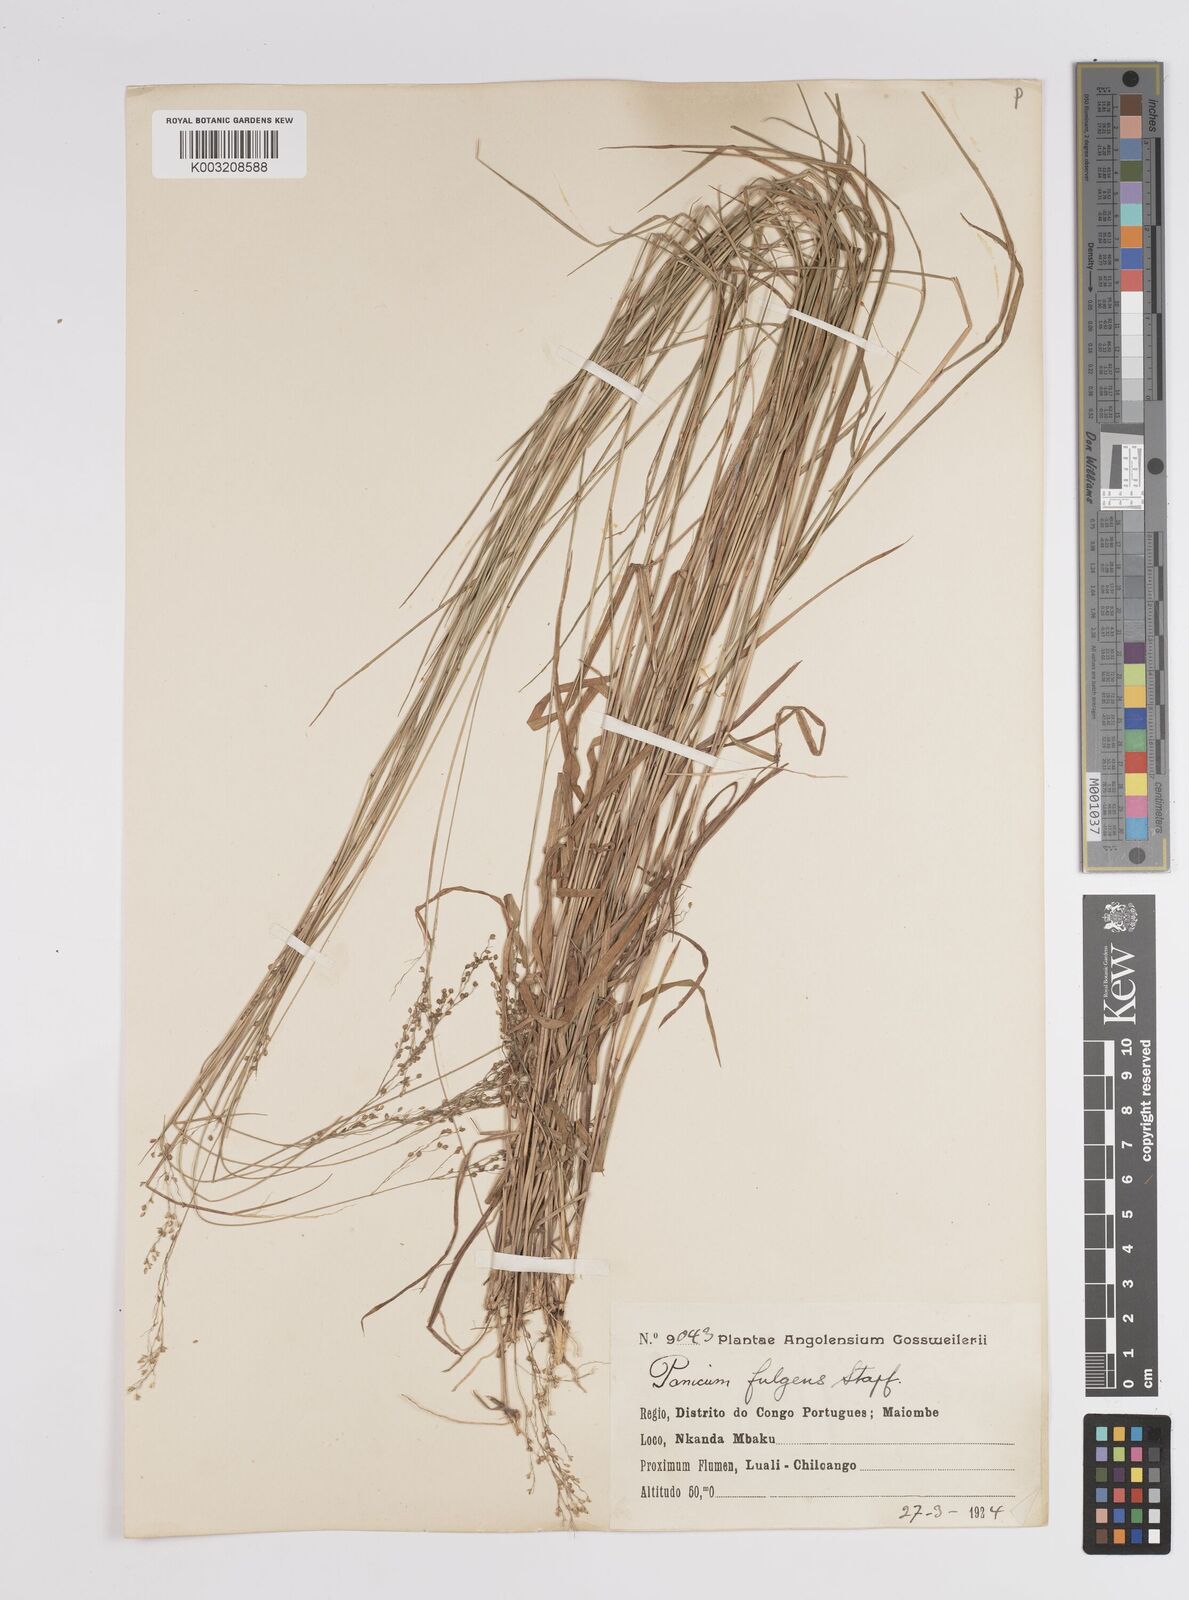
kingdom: Plantae
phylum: Tracheophyta
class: Liliopsida
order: Poales
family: Poaceae
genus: Trichanthecium
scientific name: Trichanthecium nervatum
